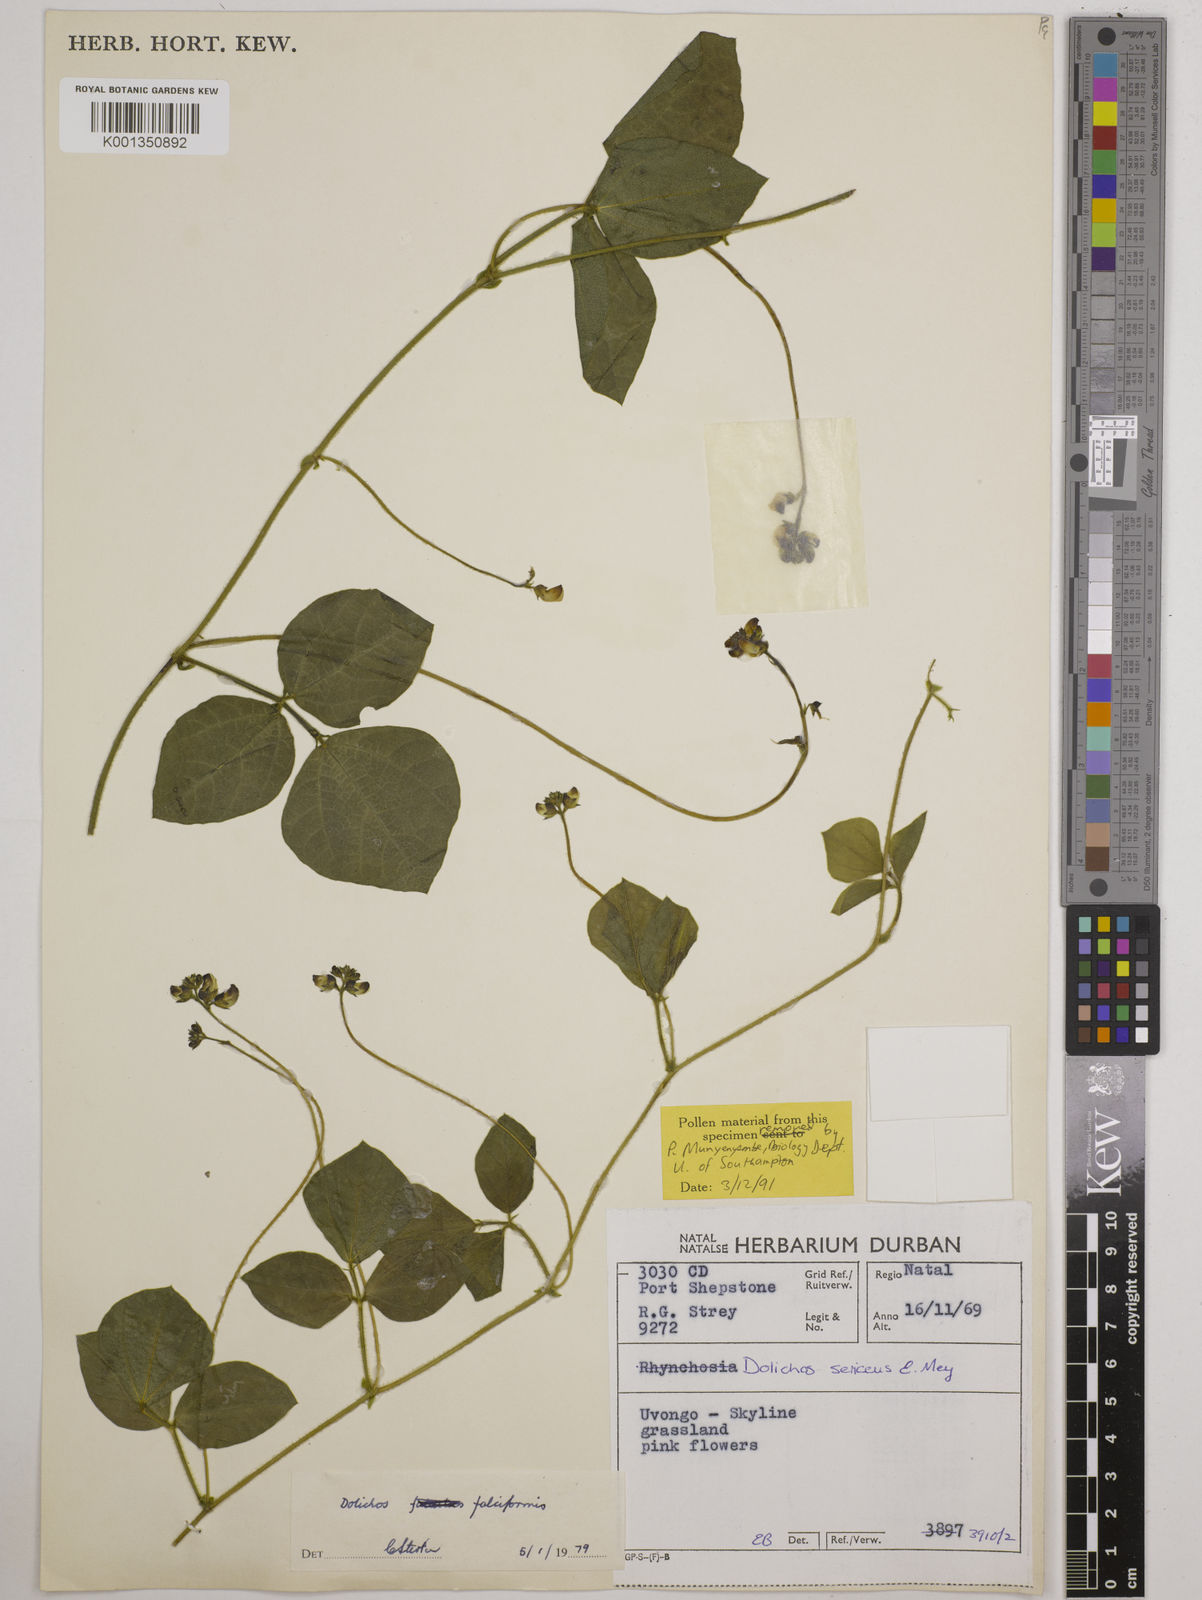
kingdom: Plantae
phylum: Tracheophyta
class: Magnoliopsida
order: Fabales
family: Fabaceae
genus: Dolichos
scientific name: Dolichos falciformis
